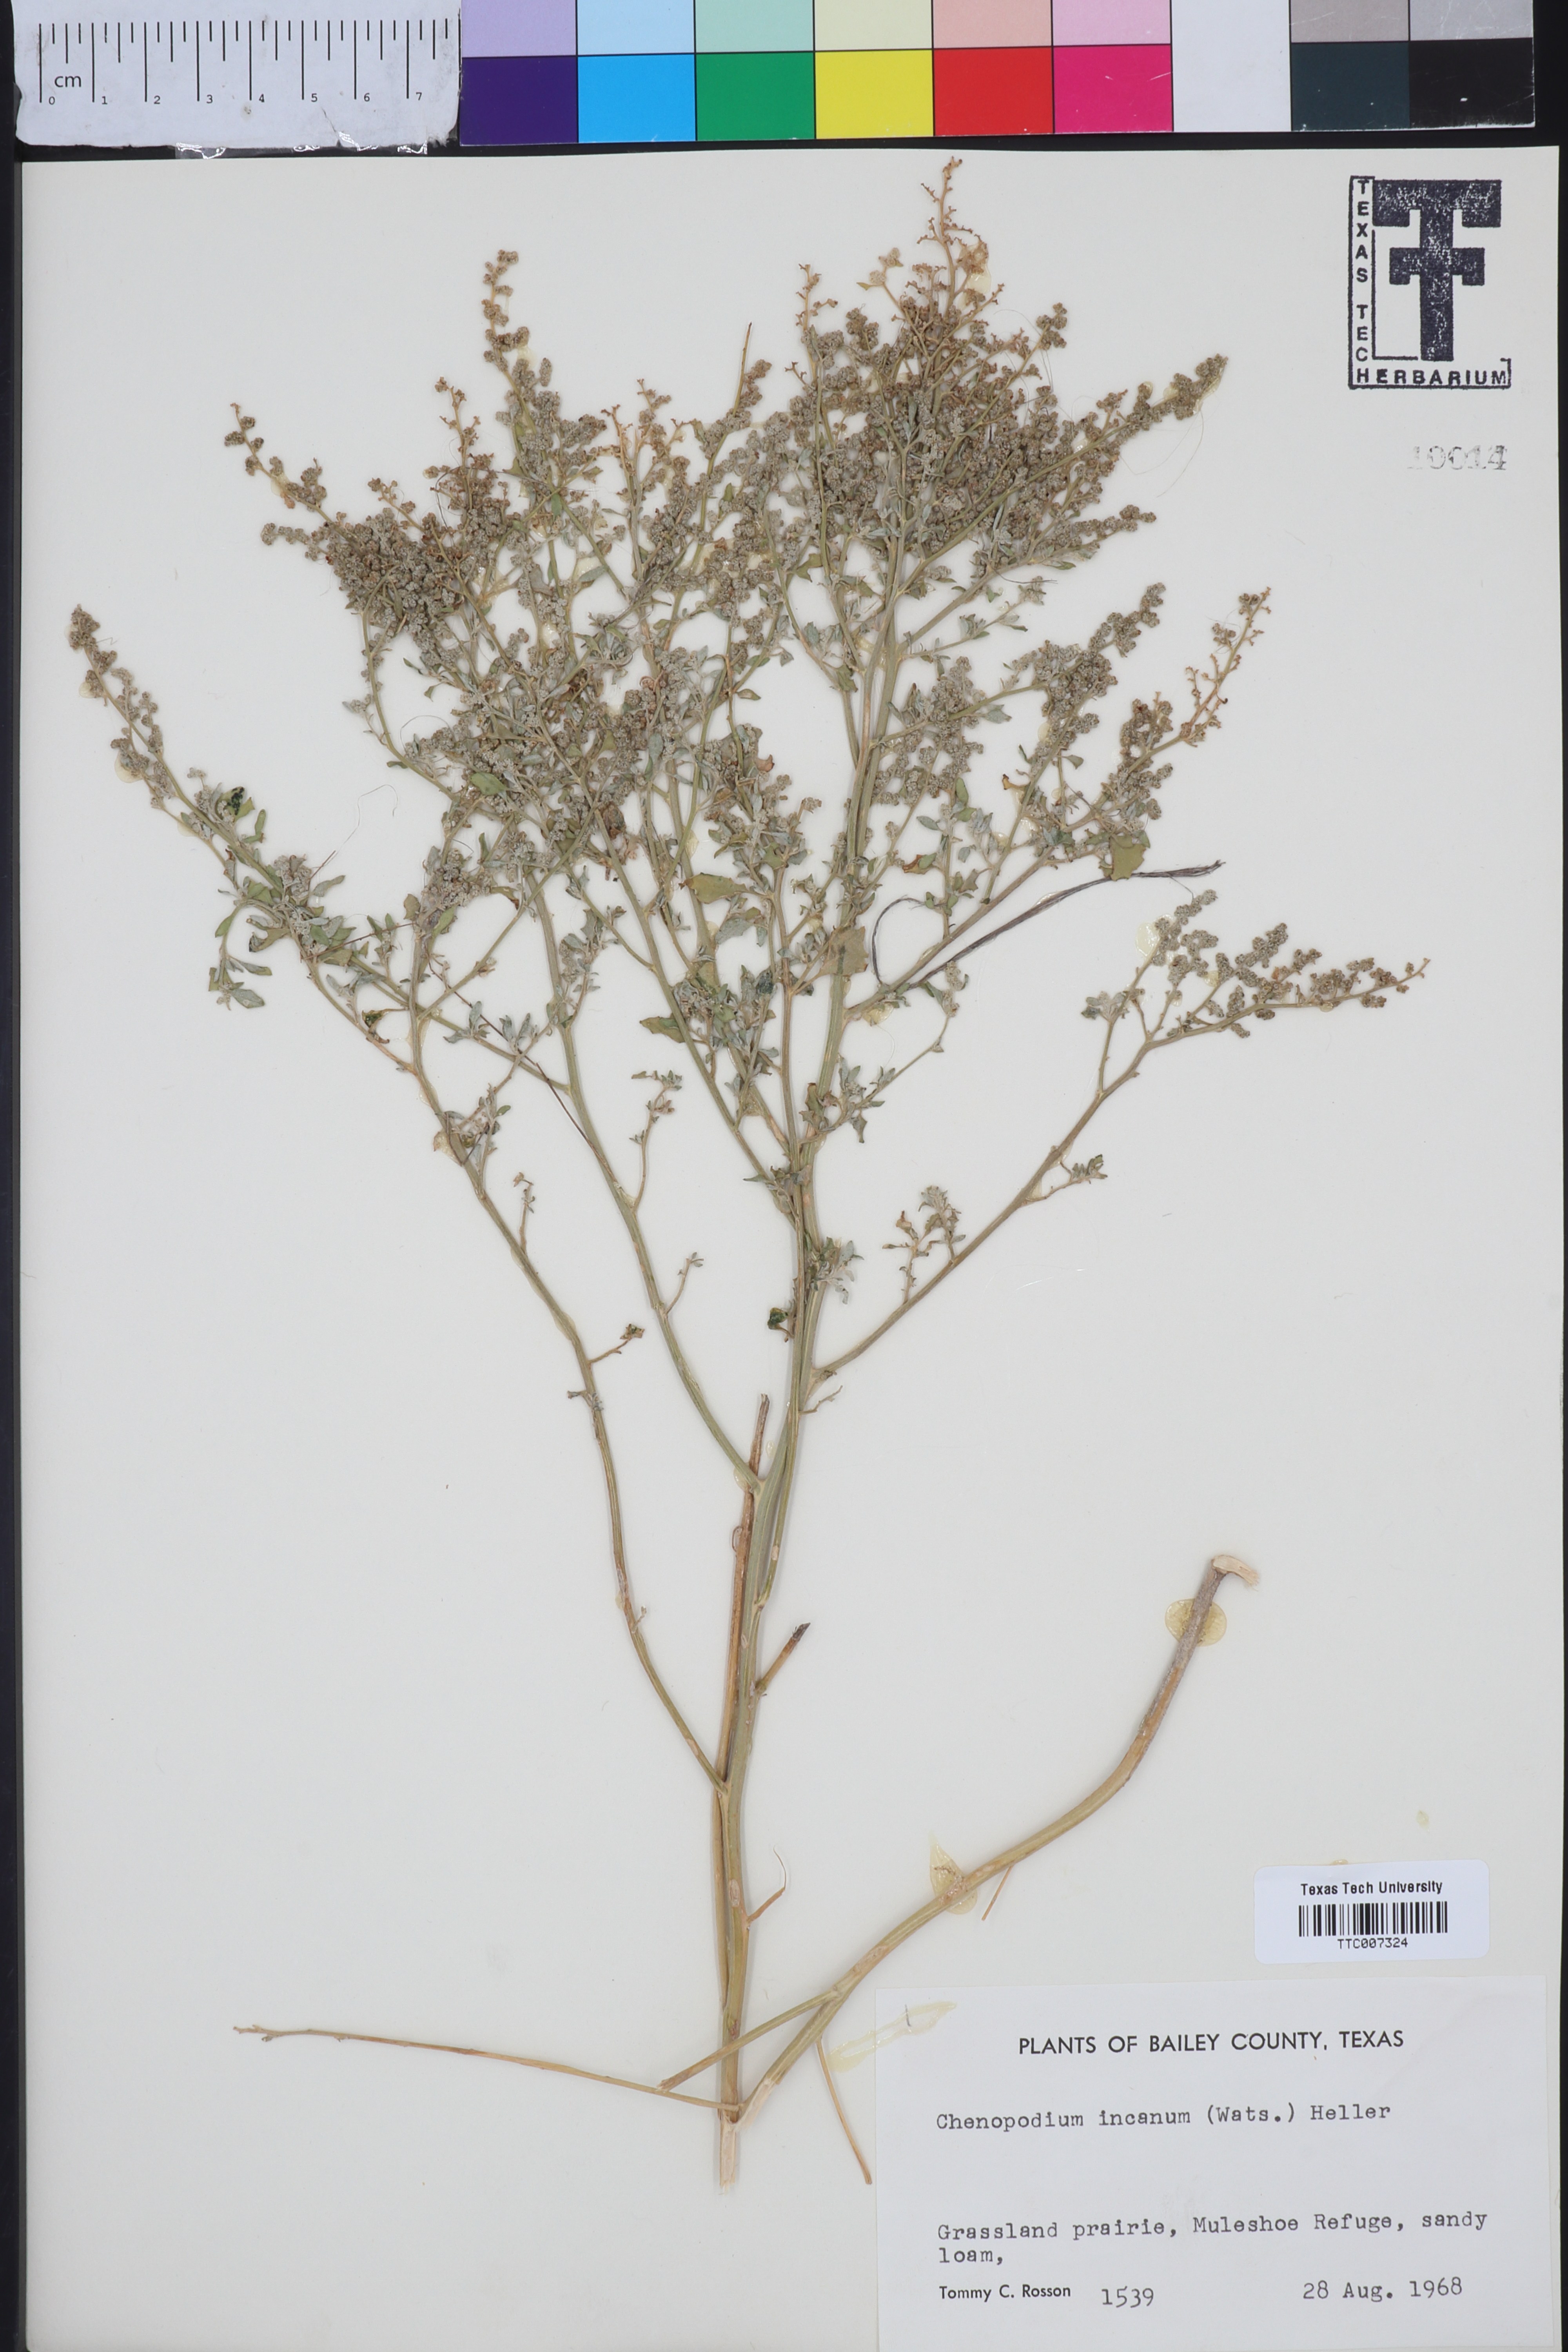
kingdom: Plantae
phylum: Tracheophyta
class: Magnoliopsida
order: Caryophyllales
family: Amaranthaceae
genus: Chenopodium
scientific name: Chenopodium incanum
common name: Hoary goosefoot
